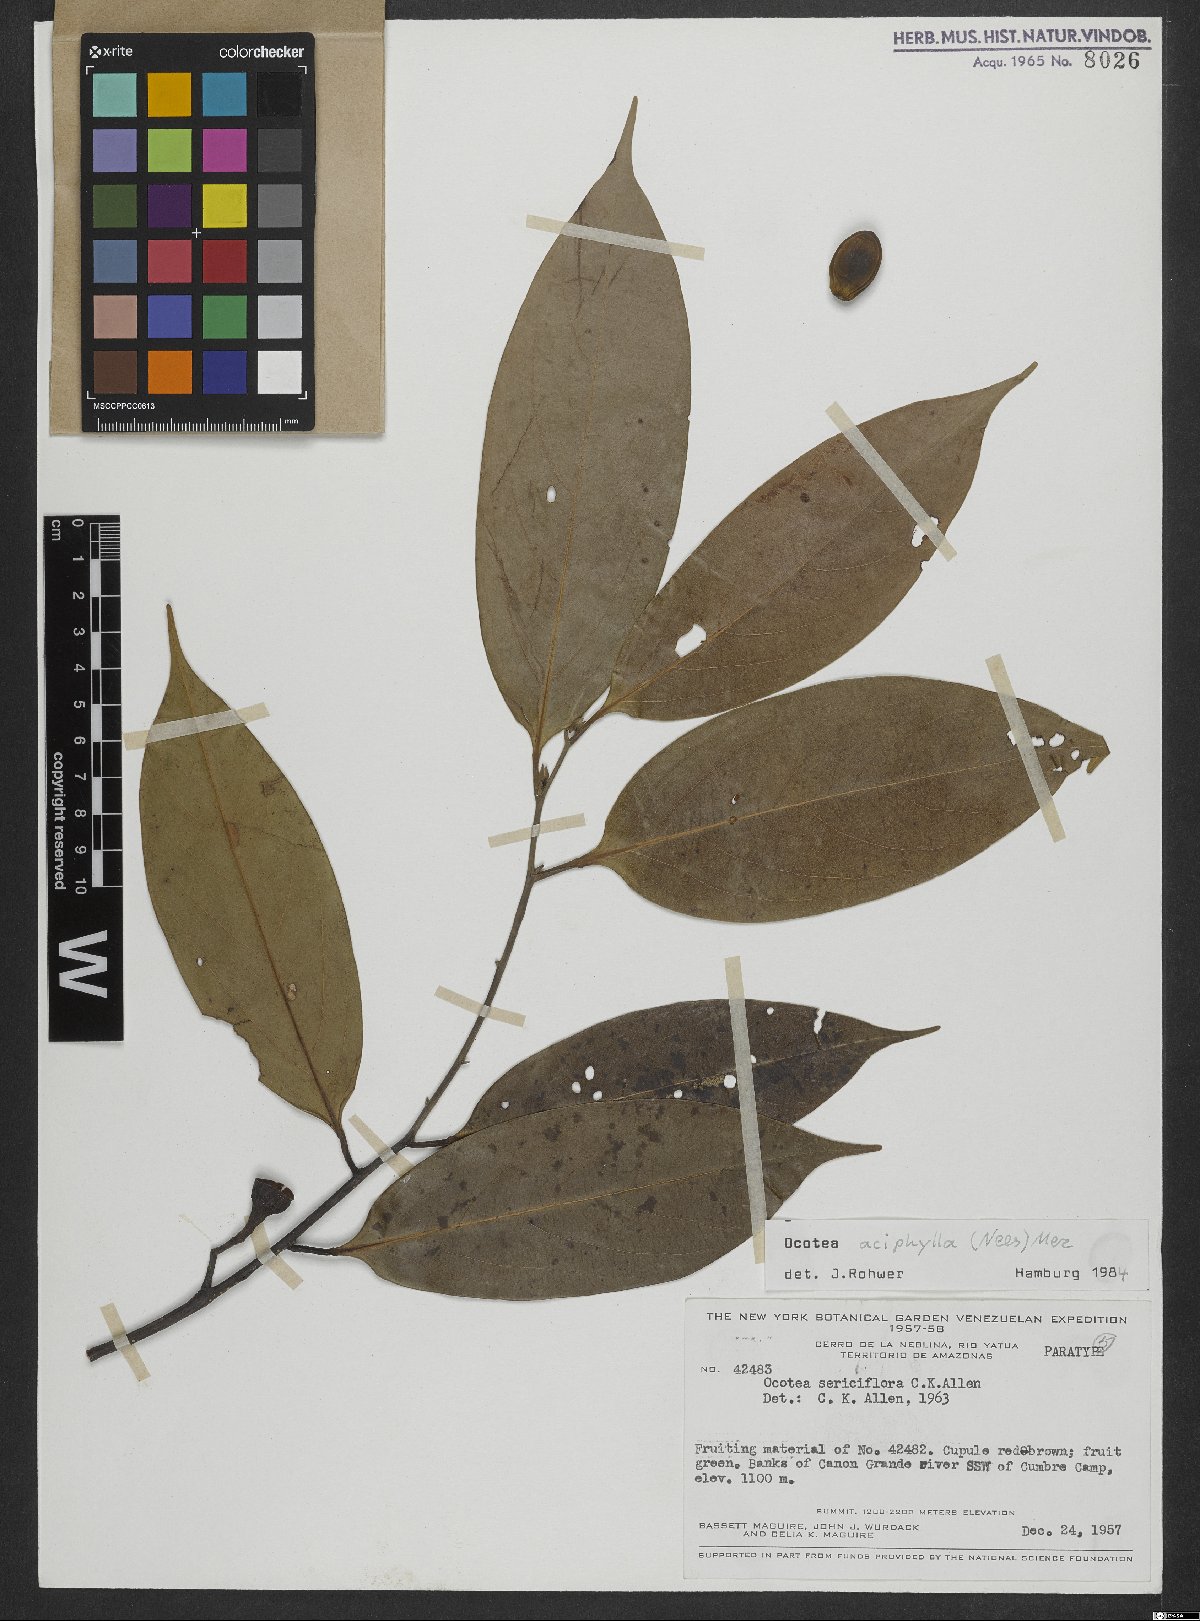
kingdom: Plantae
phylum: Tracheophyta
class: Magnoliopsida
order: Laurales
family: Lauraceae
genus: Ocotea
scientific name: Ocotea aciphylla
